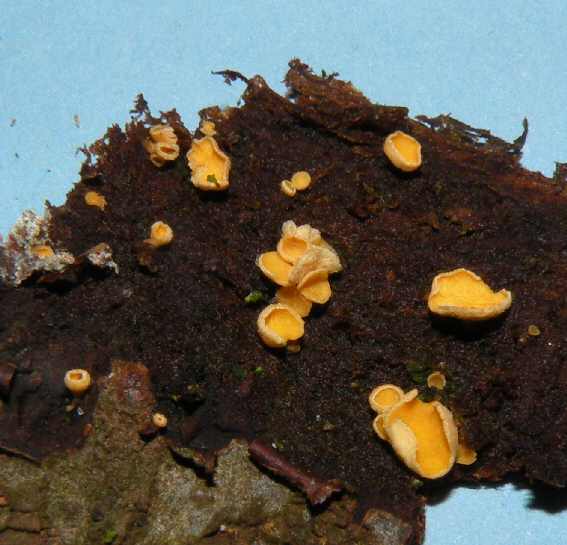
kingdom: Fungi
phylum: Ascomycota
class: Leotiomycetes
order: Helotiales
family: Lachnaceae
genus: Lachnellula
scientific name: Lachnellula subtilissima
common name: gran-frynseskive
